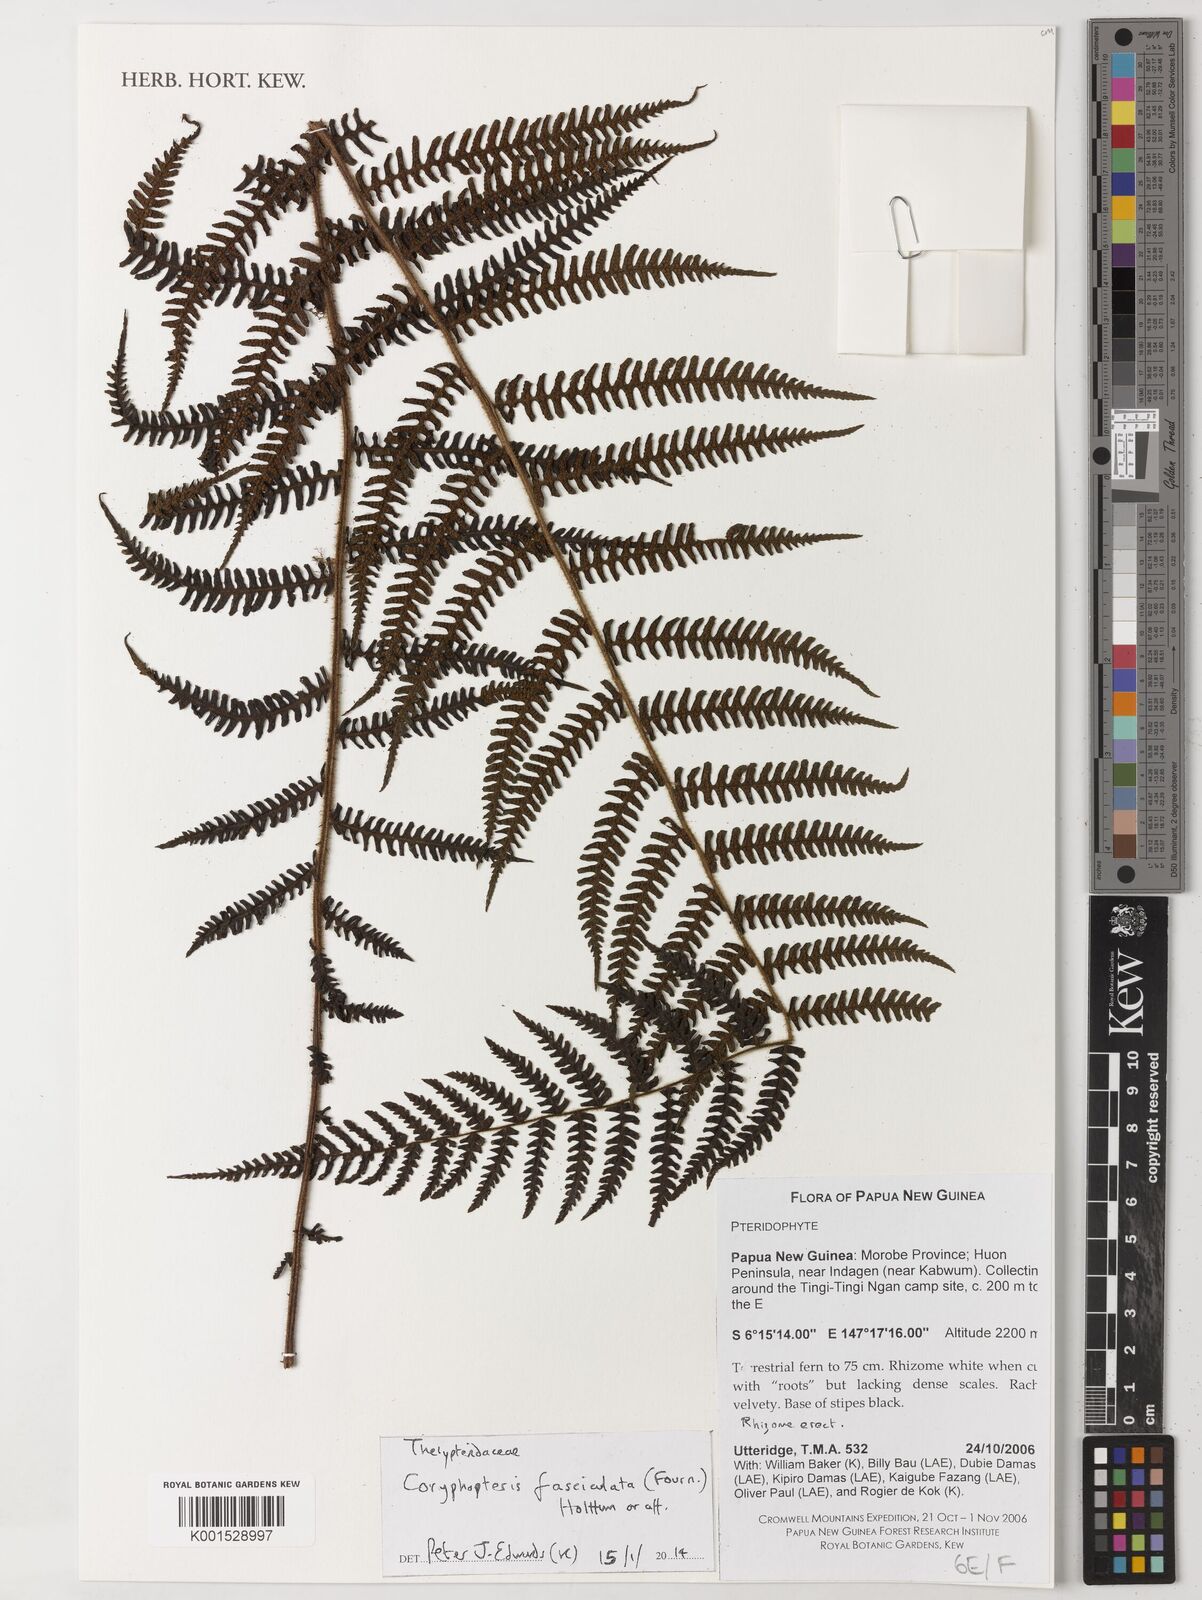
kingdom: Plantae
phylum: Tracheophyta
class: Polypodiopsida
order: Polypodiales
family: Thelypteridaceae
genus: Coryphopteris
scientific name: Coryphopteris fasciculata
